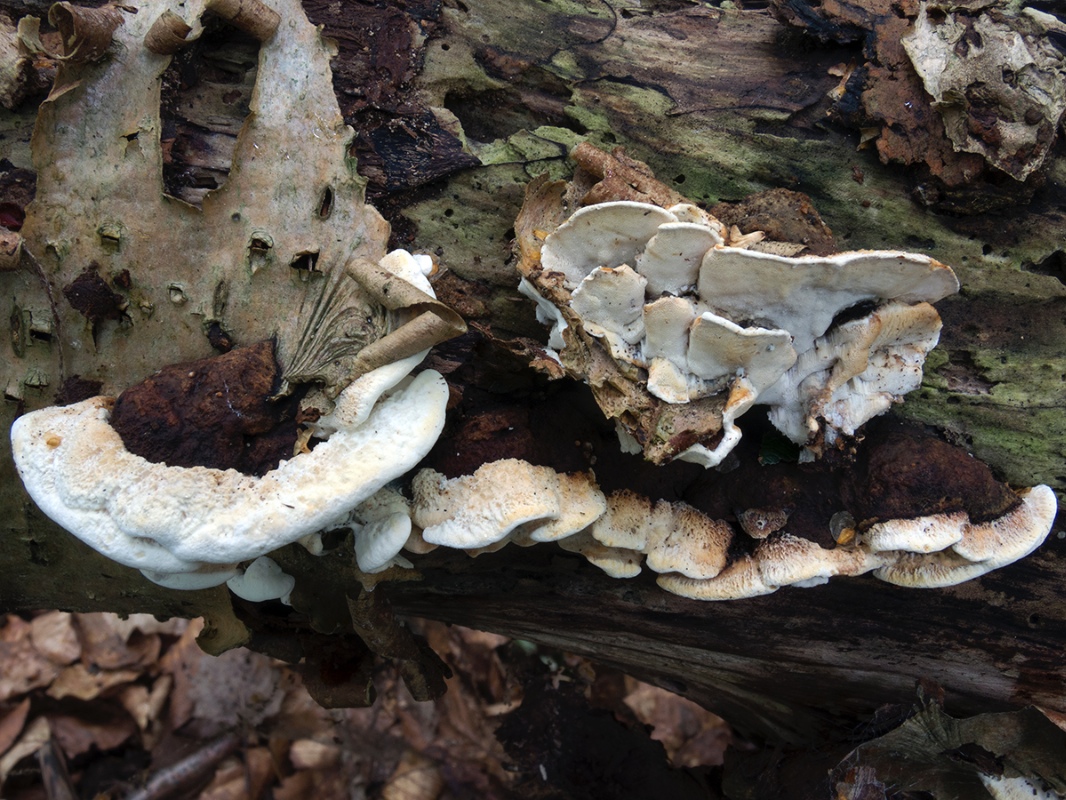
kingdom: Fungi
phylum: Basidiomycota
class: Agaricomycetes
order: Polyporales
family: Incrustoporiaceae
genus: Skeletocutis
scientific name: Skeletocutis nemoralis
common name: stor krystalporesvamp
